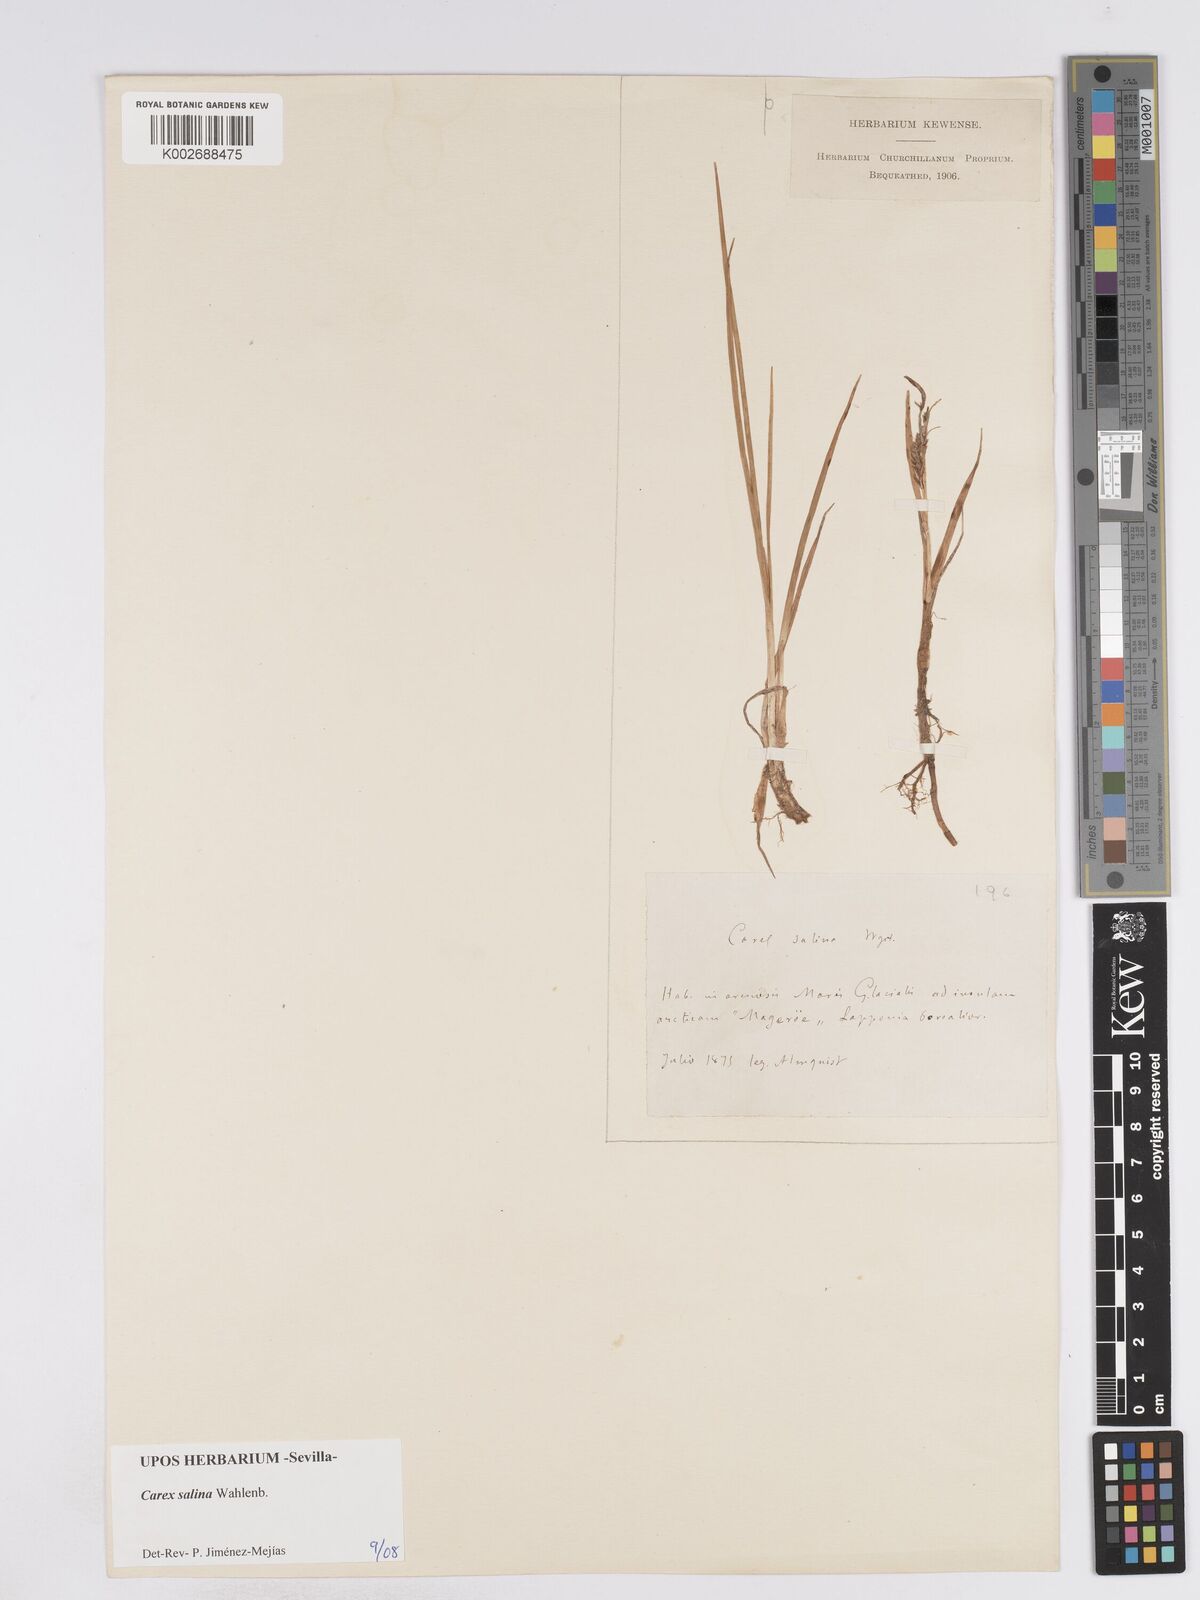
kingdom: Plantae
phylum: Tracheophyta
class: Liliopsida
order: Poales
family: Cyperaceae
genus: Carex
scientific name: Carex salina
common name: Saltmarsh sedge
